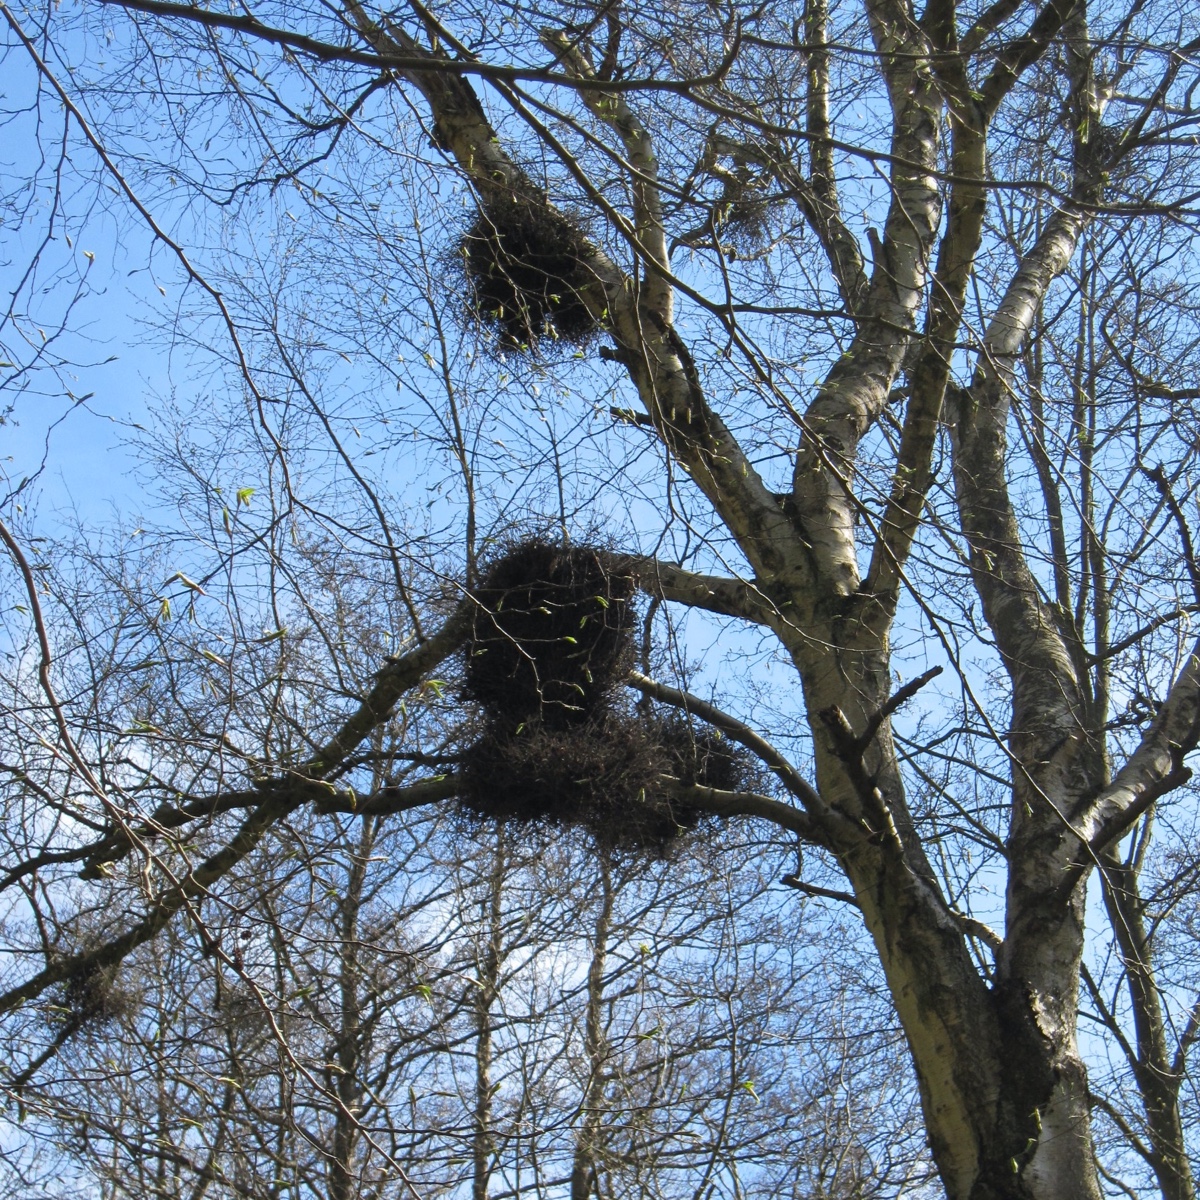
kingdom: Fungi
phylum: Ascomycota
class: Taphrinomycetes
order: Taphrinales
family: Taphrinaceae
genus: Taphrina
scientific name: Taphrina betulina
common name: hekse-sækdug
